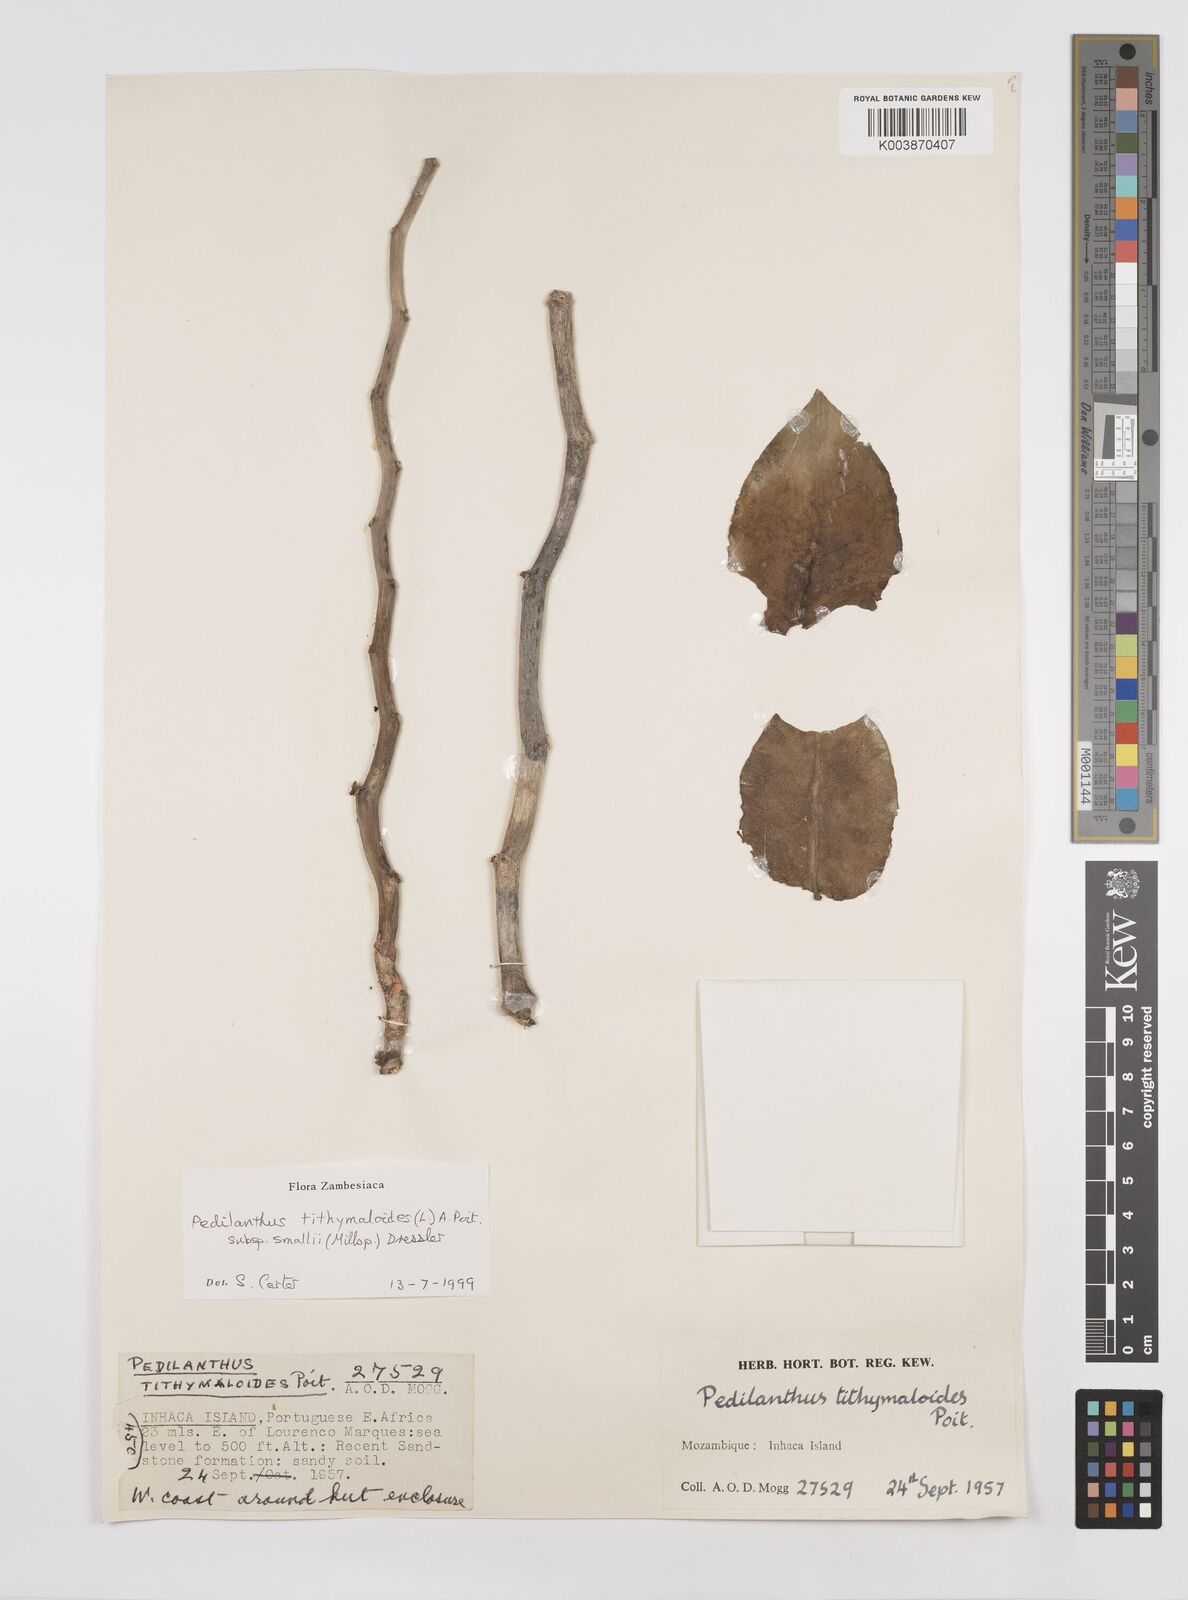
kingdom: Plantae
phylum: Tracheophyta
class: Magnoliopsida
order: Malpighiales
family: Euphorbiaceae
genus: Euphorbia
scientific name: Euphorbia tithymaloides
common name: Slipperplant
